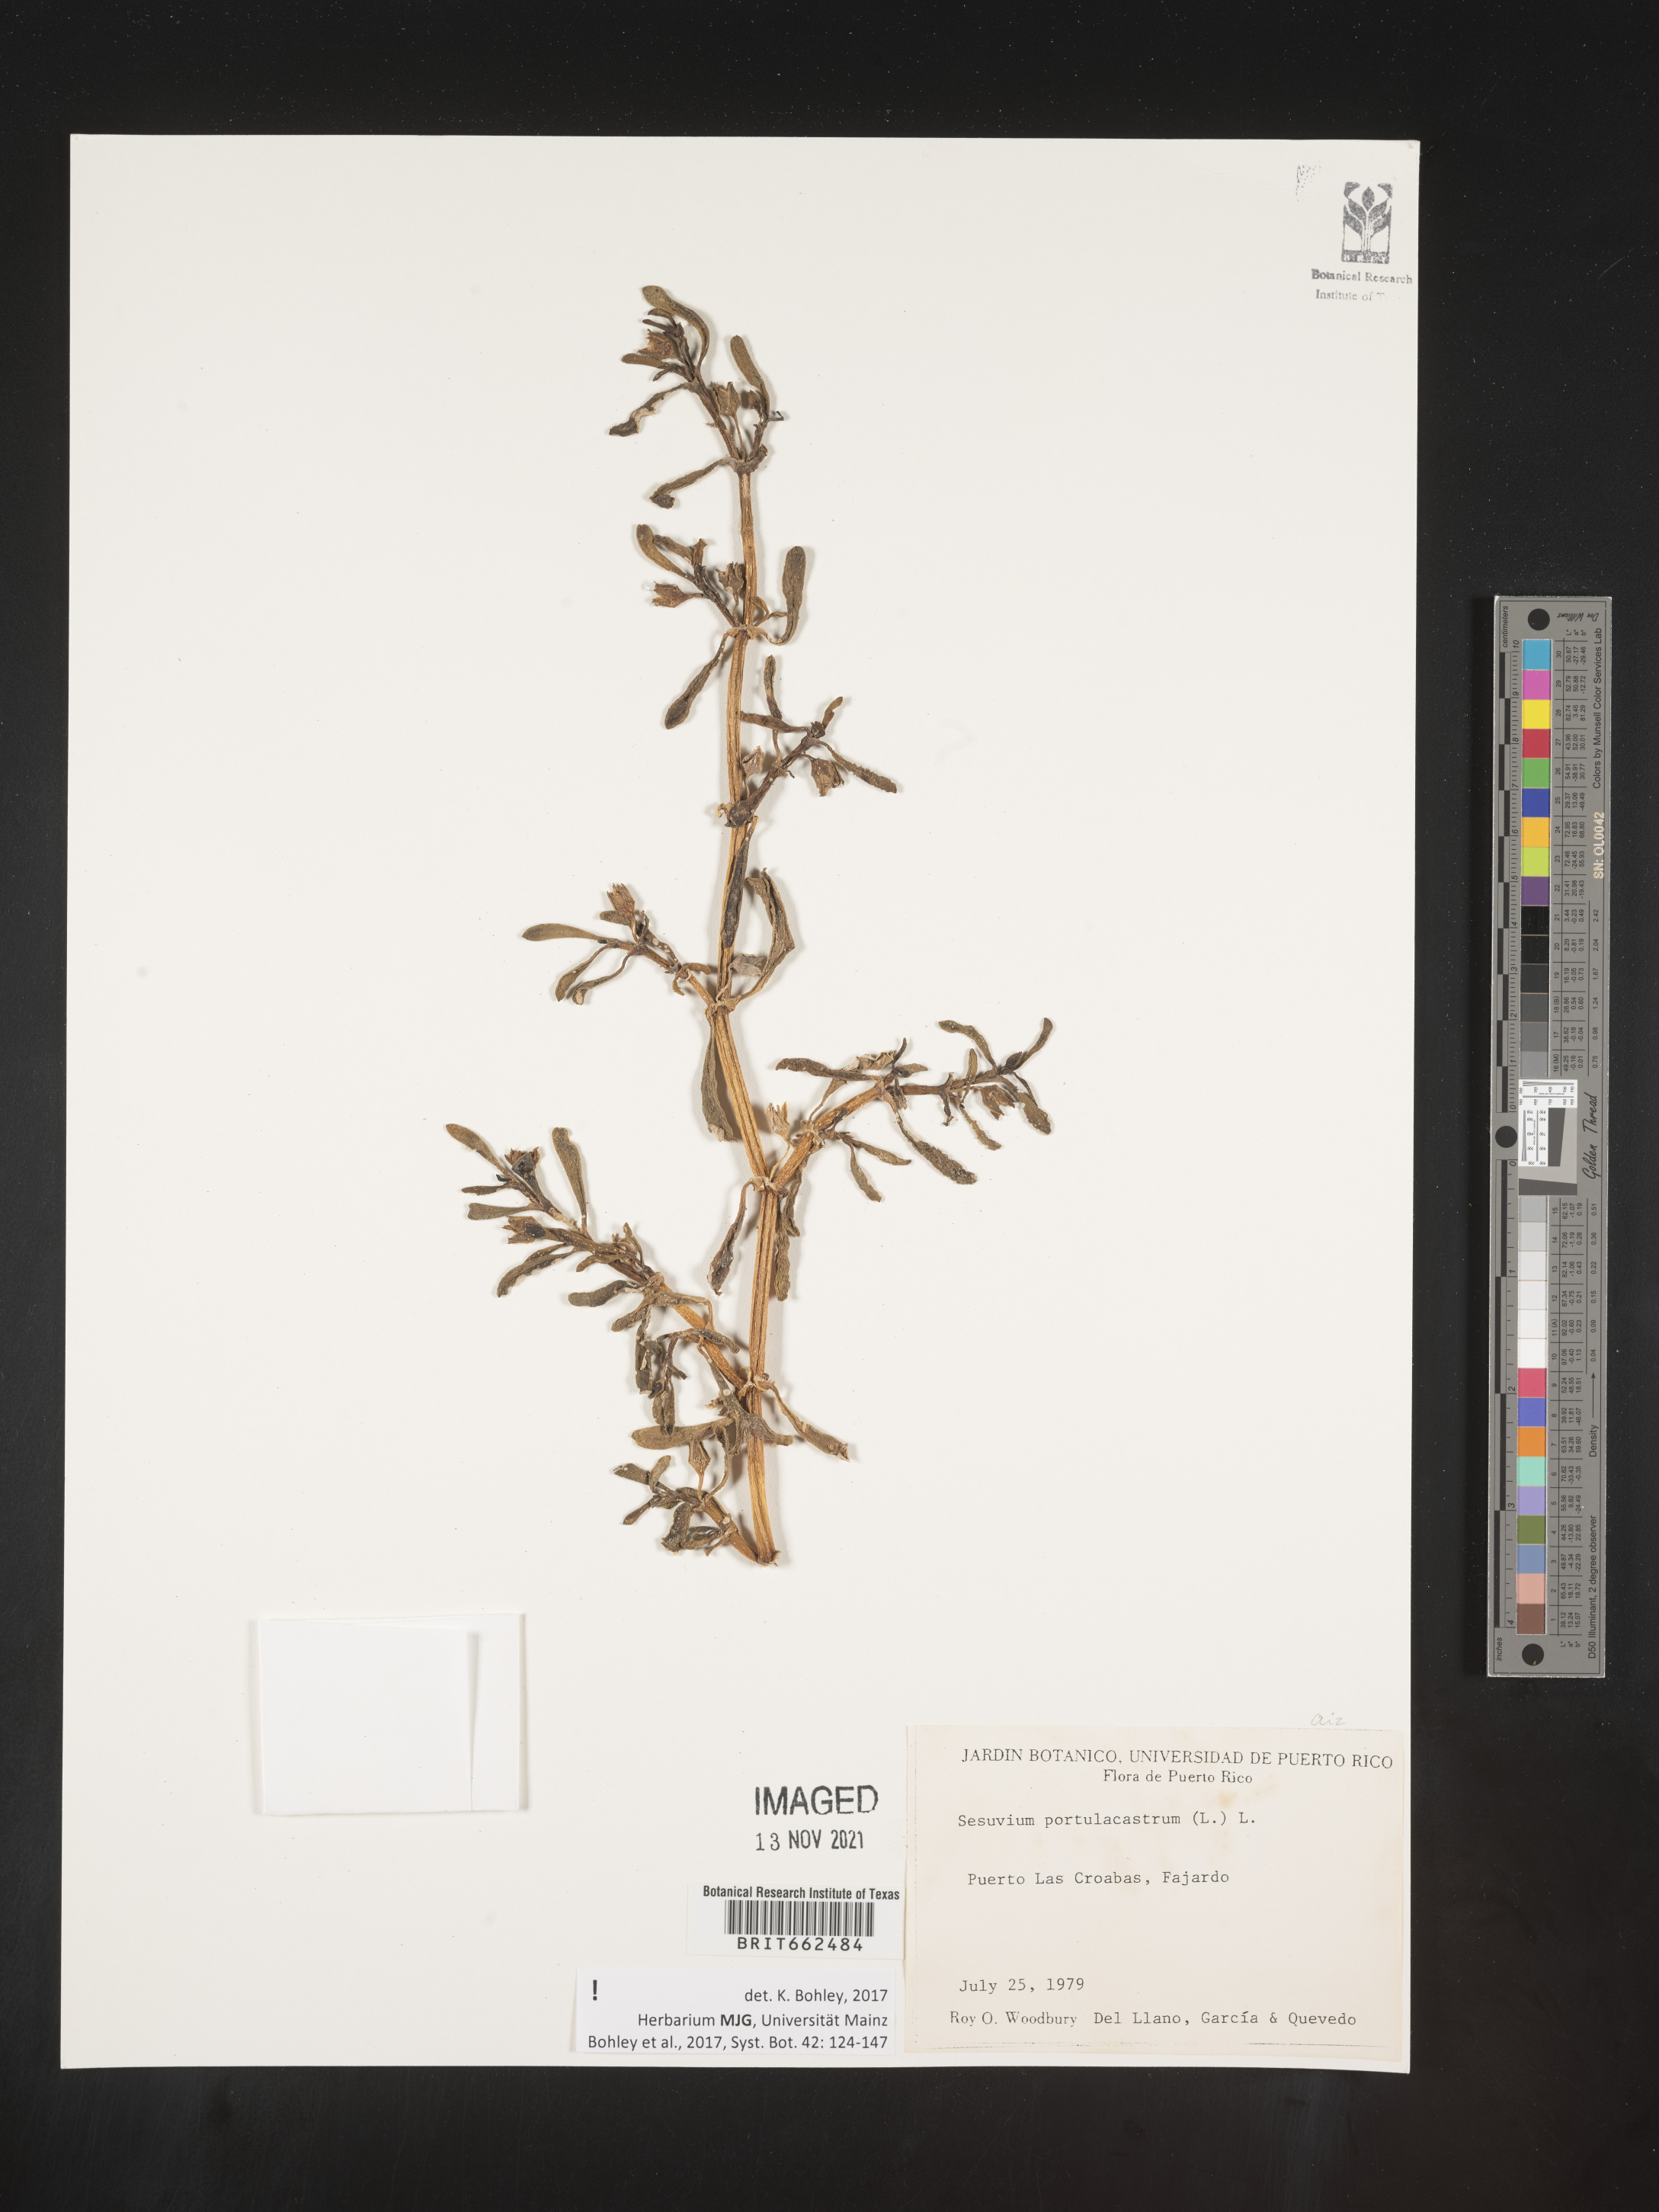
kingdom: Plantae
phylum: Tracheophyta
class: Magnoliopsida
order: Caryophyllales
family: Aizoaceae
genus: Sesuvium
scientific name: Sesuvium
